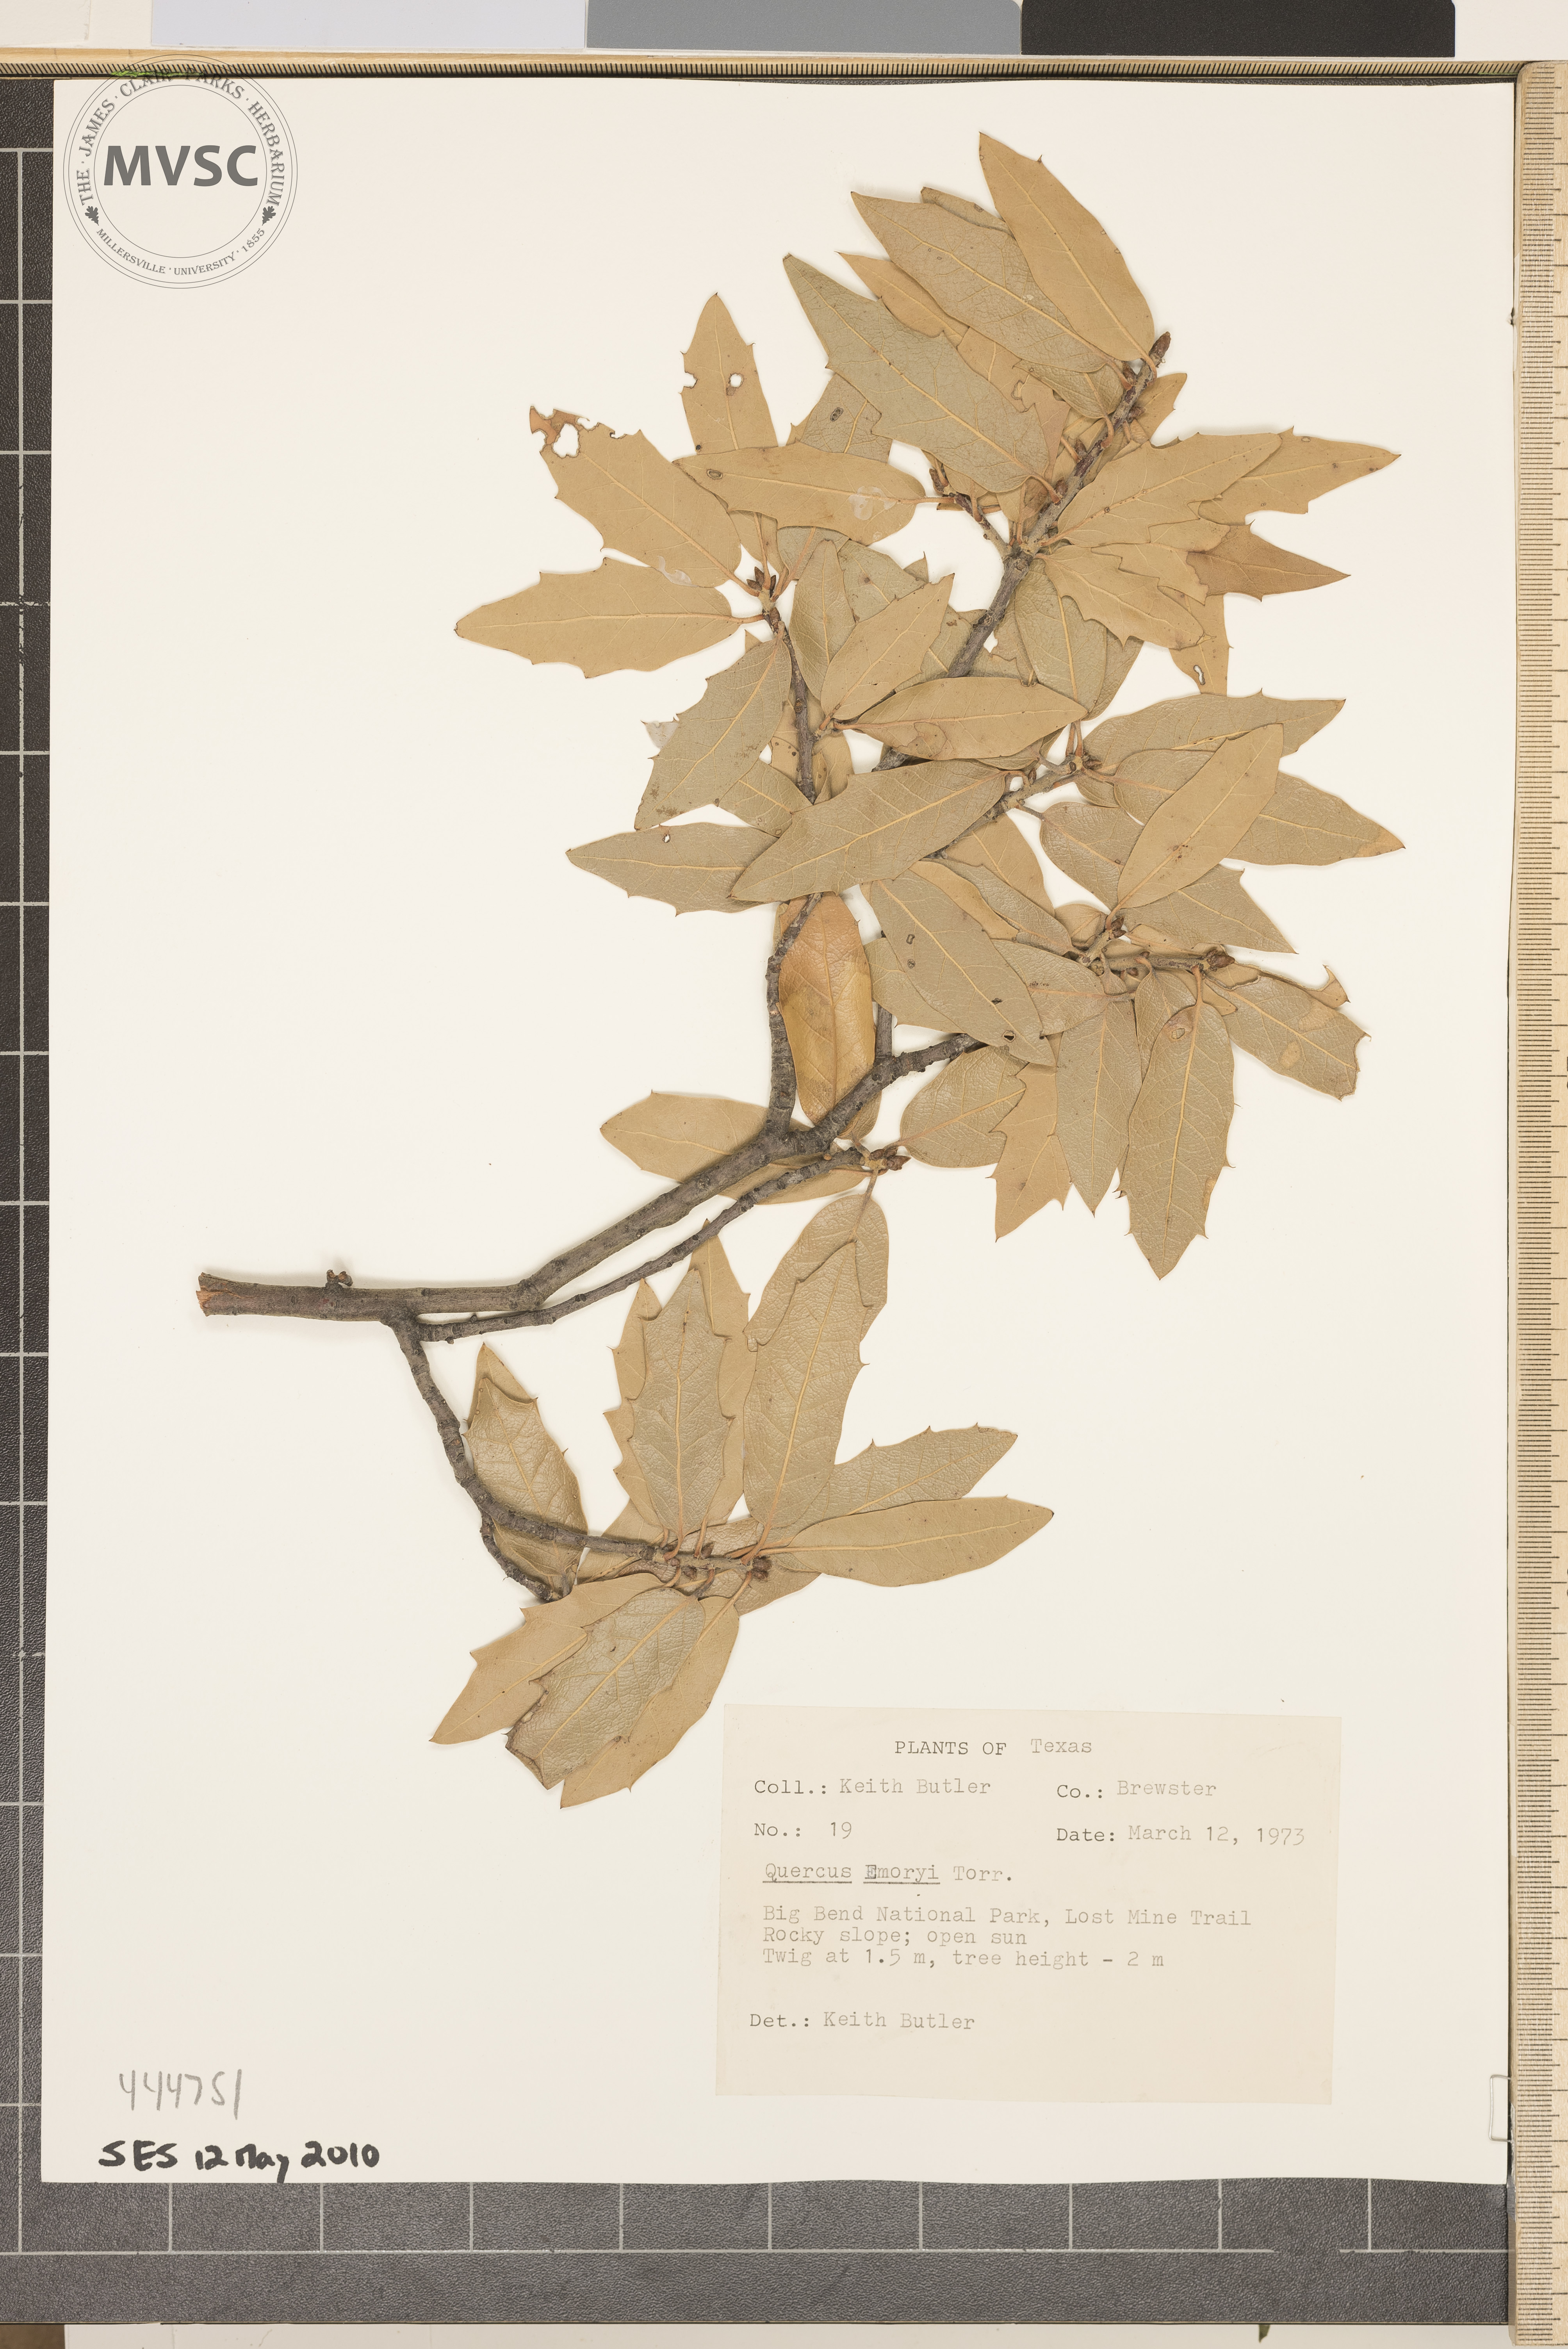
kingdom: Plantae
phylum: Tracheophyta
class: Magnoliopsida
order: Fagales
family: Fagaceae
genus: Quercus
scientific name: Quercus emoryi
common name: Emory oak
